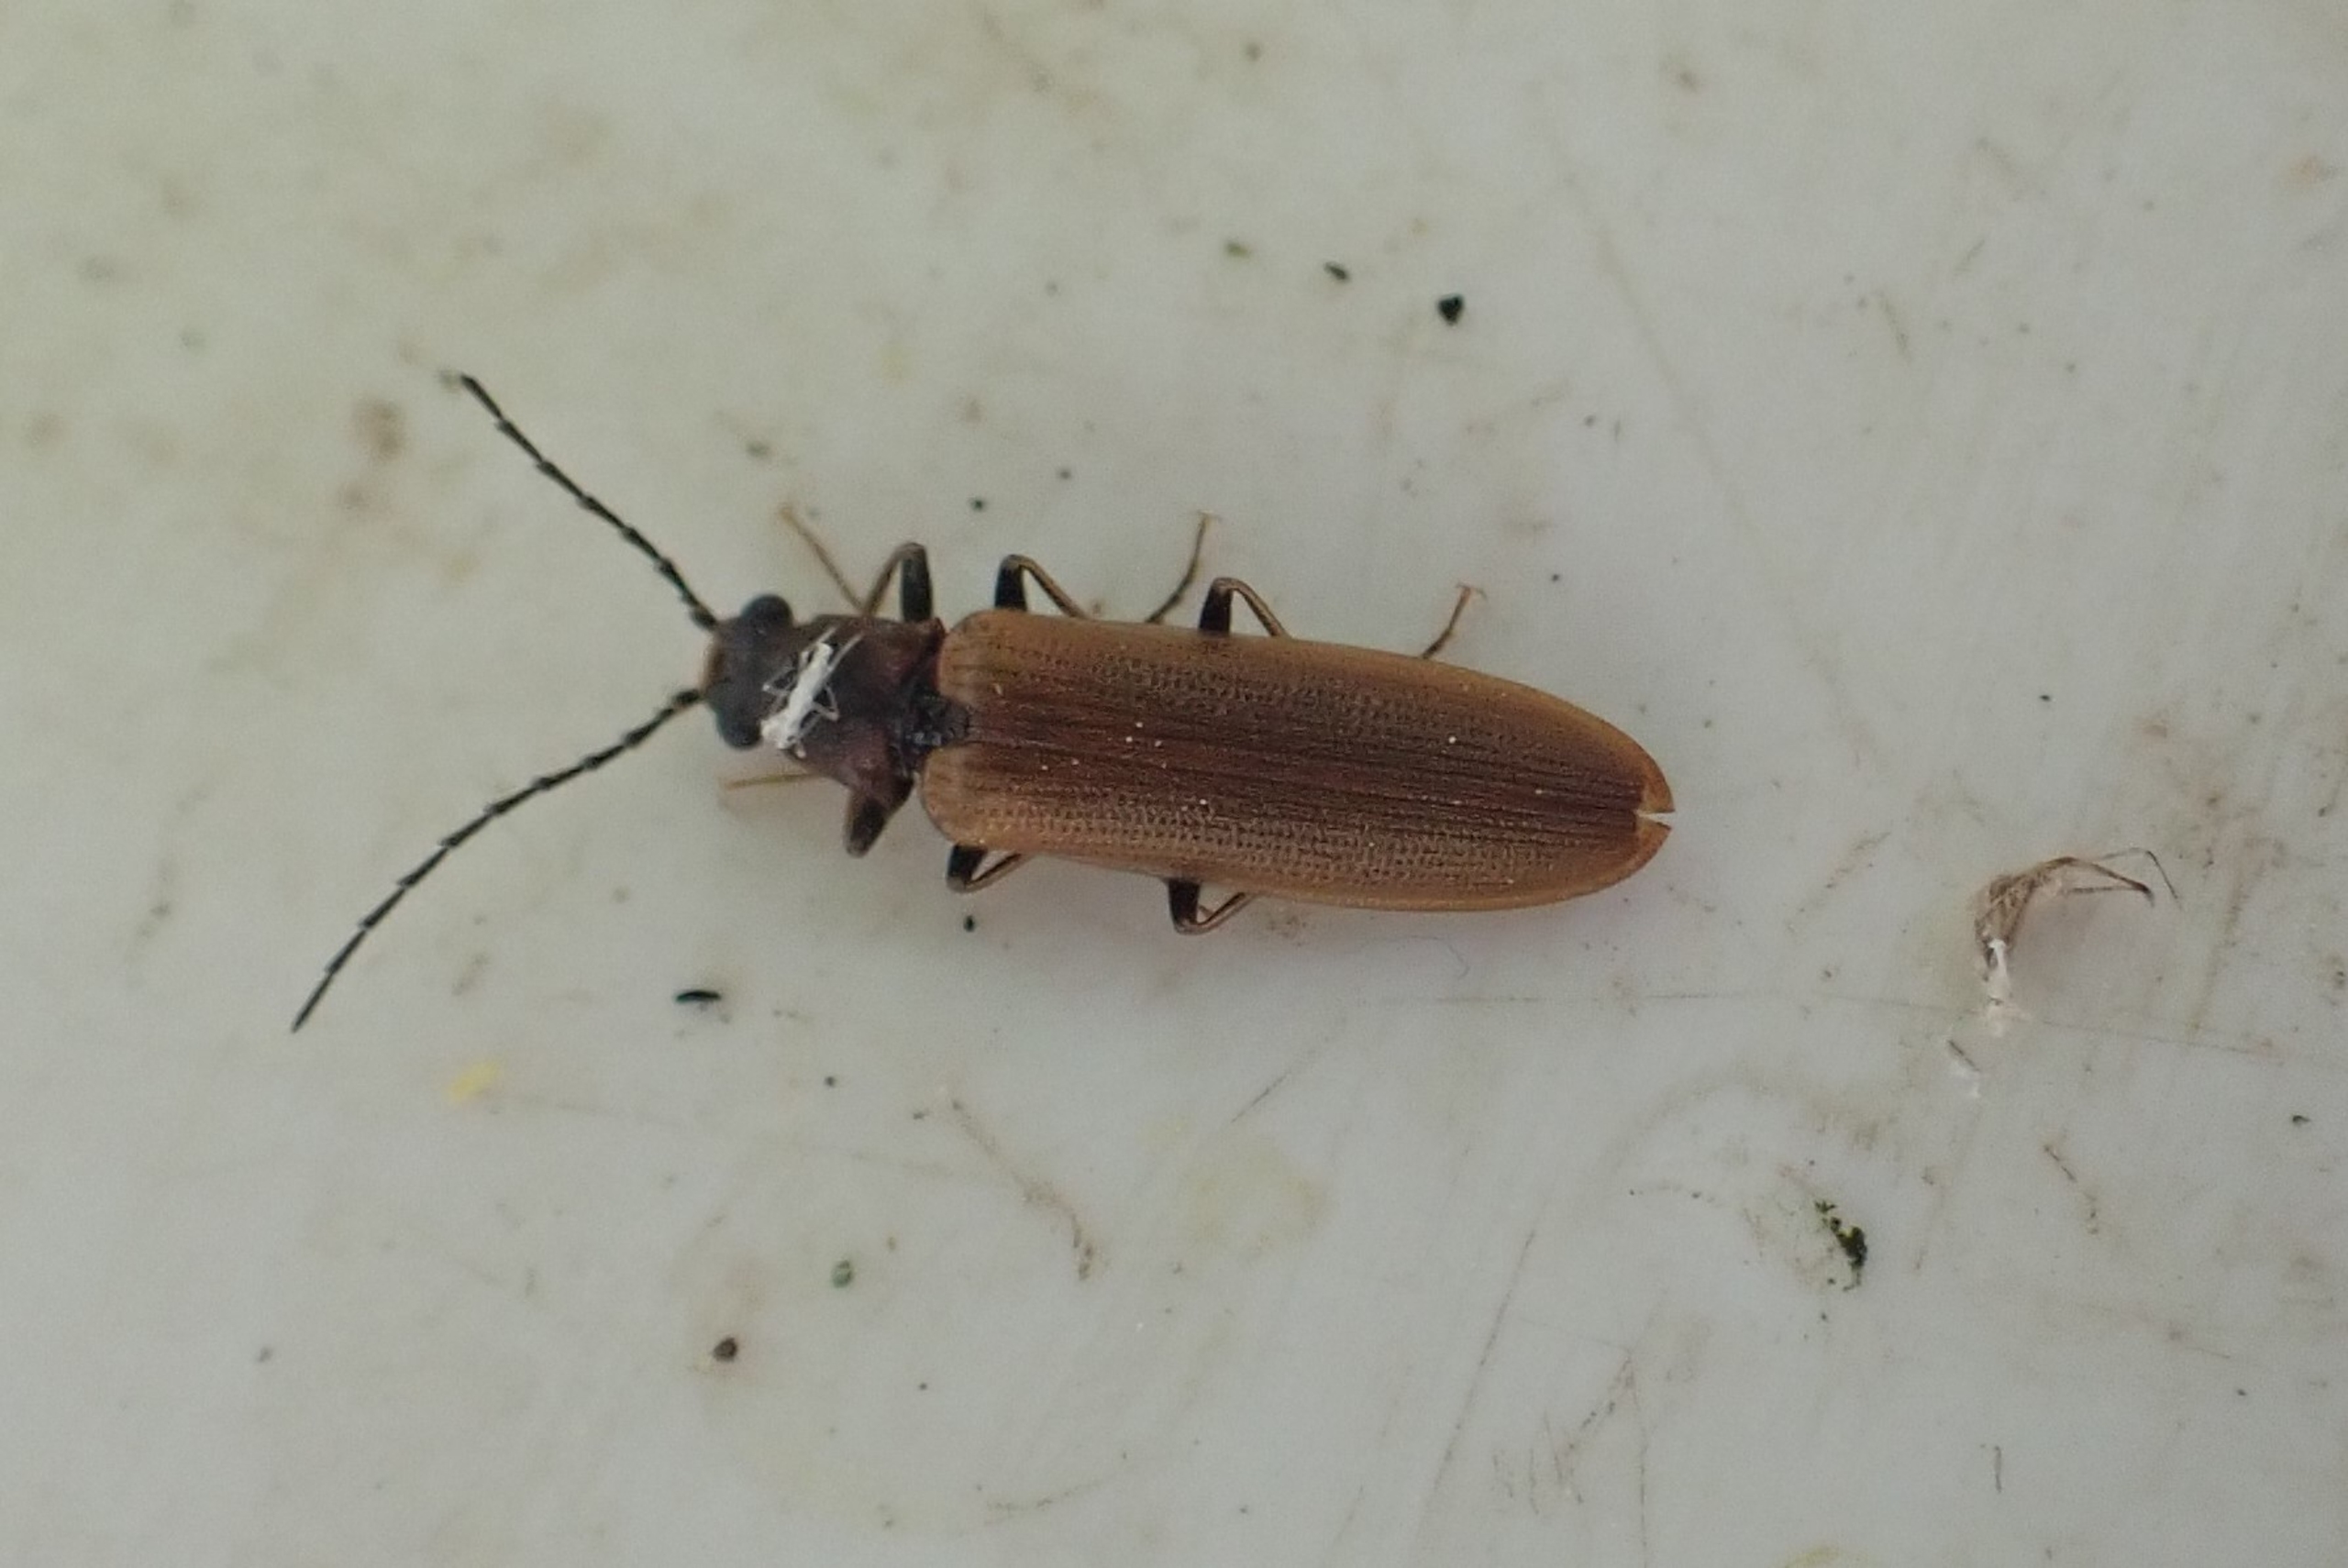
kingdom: Animalia
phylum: Arthropoda
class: Insecta
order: Coleoptera
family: Elateridae
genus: Denticollis
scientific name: Denticollis linearis
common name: Almindelig sirsmælder
